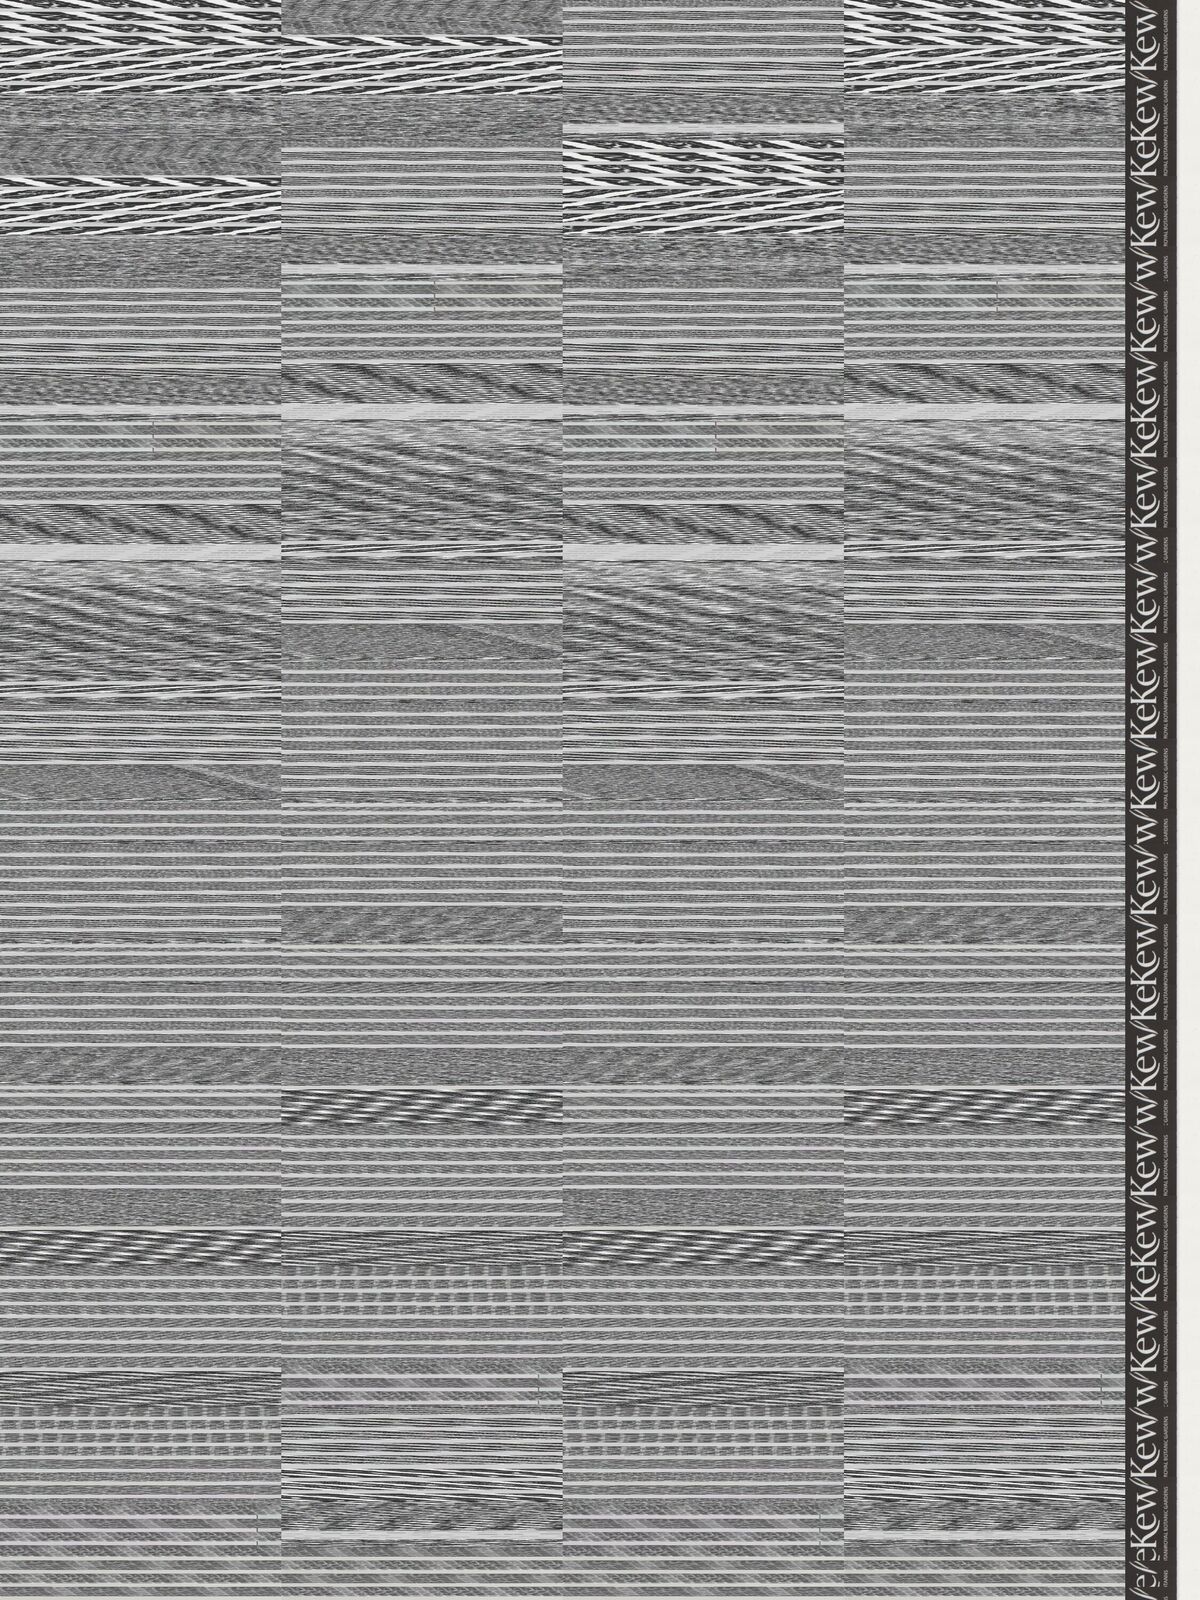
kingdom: Plantae
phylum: Tracheophyta
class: Magnoliopsida
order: Asterales
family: Asteraceae
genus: Acourtia
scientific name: Acourtia turbinata
